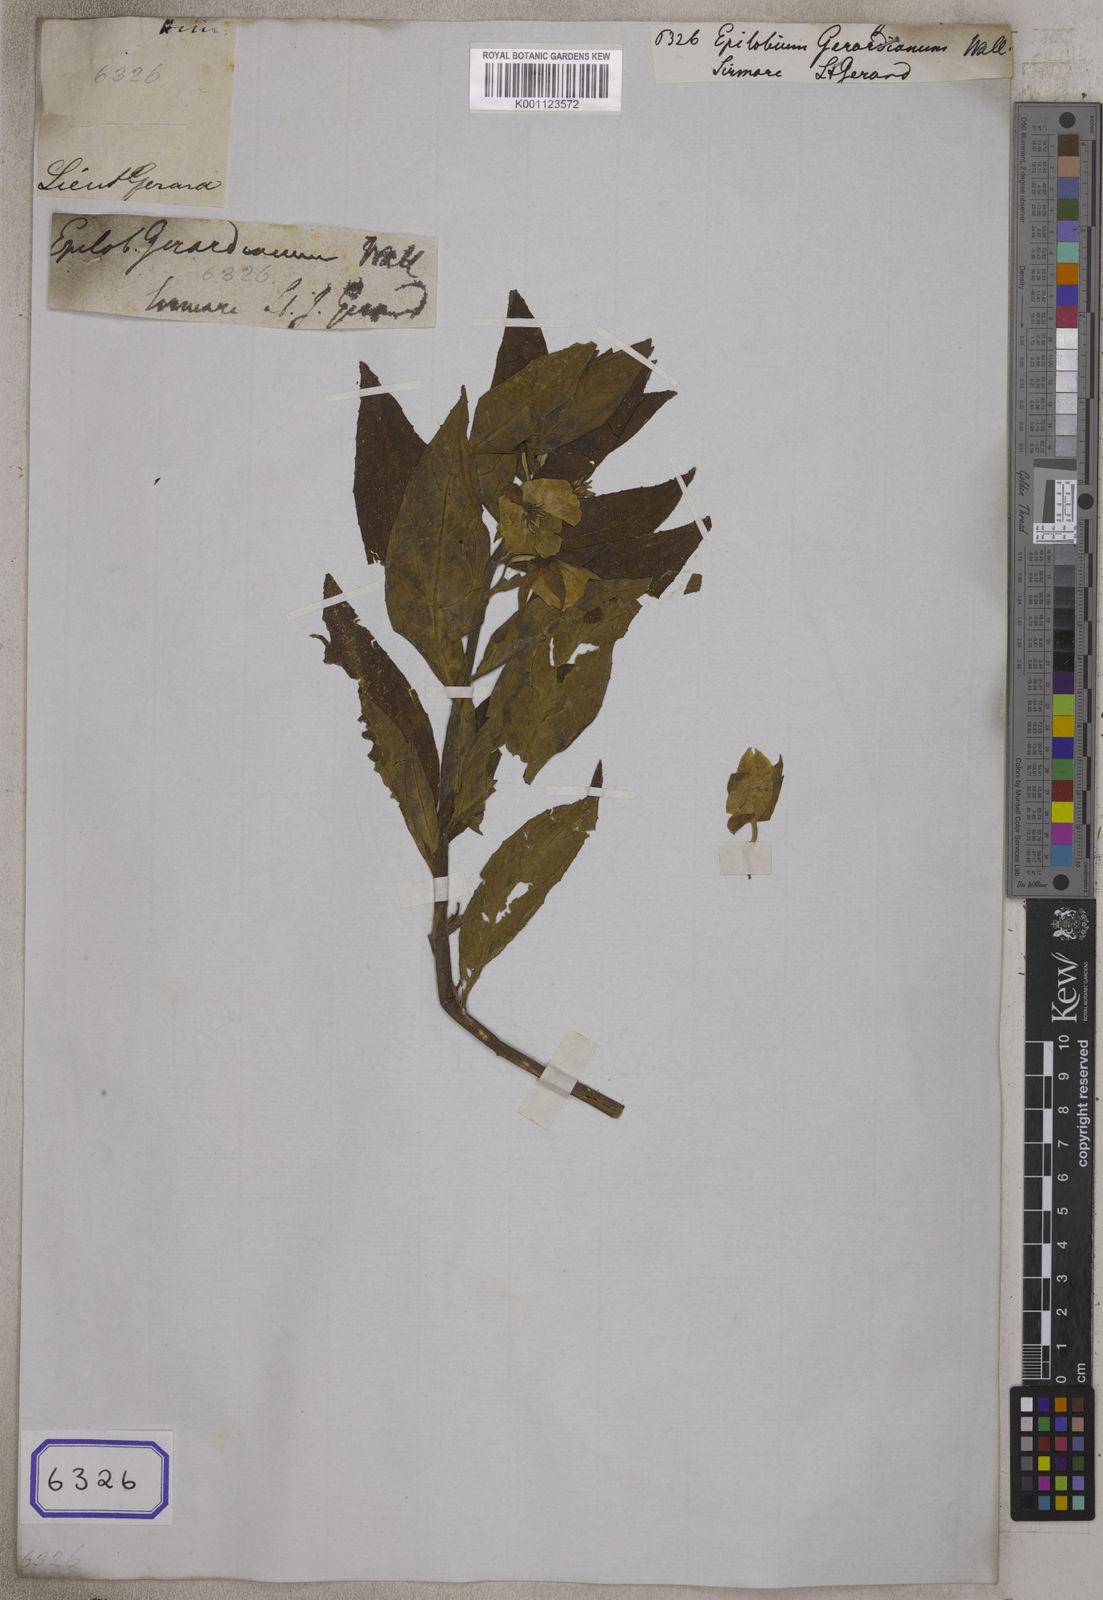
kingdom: Plantae
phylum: Tracheophyta
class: Magnoliopsida
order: Myrtales
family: Onagraceae
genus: Epilobium
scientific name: Epilobium
